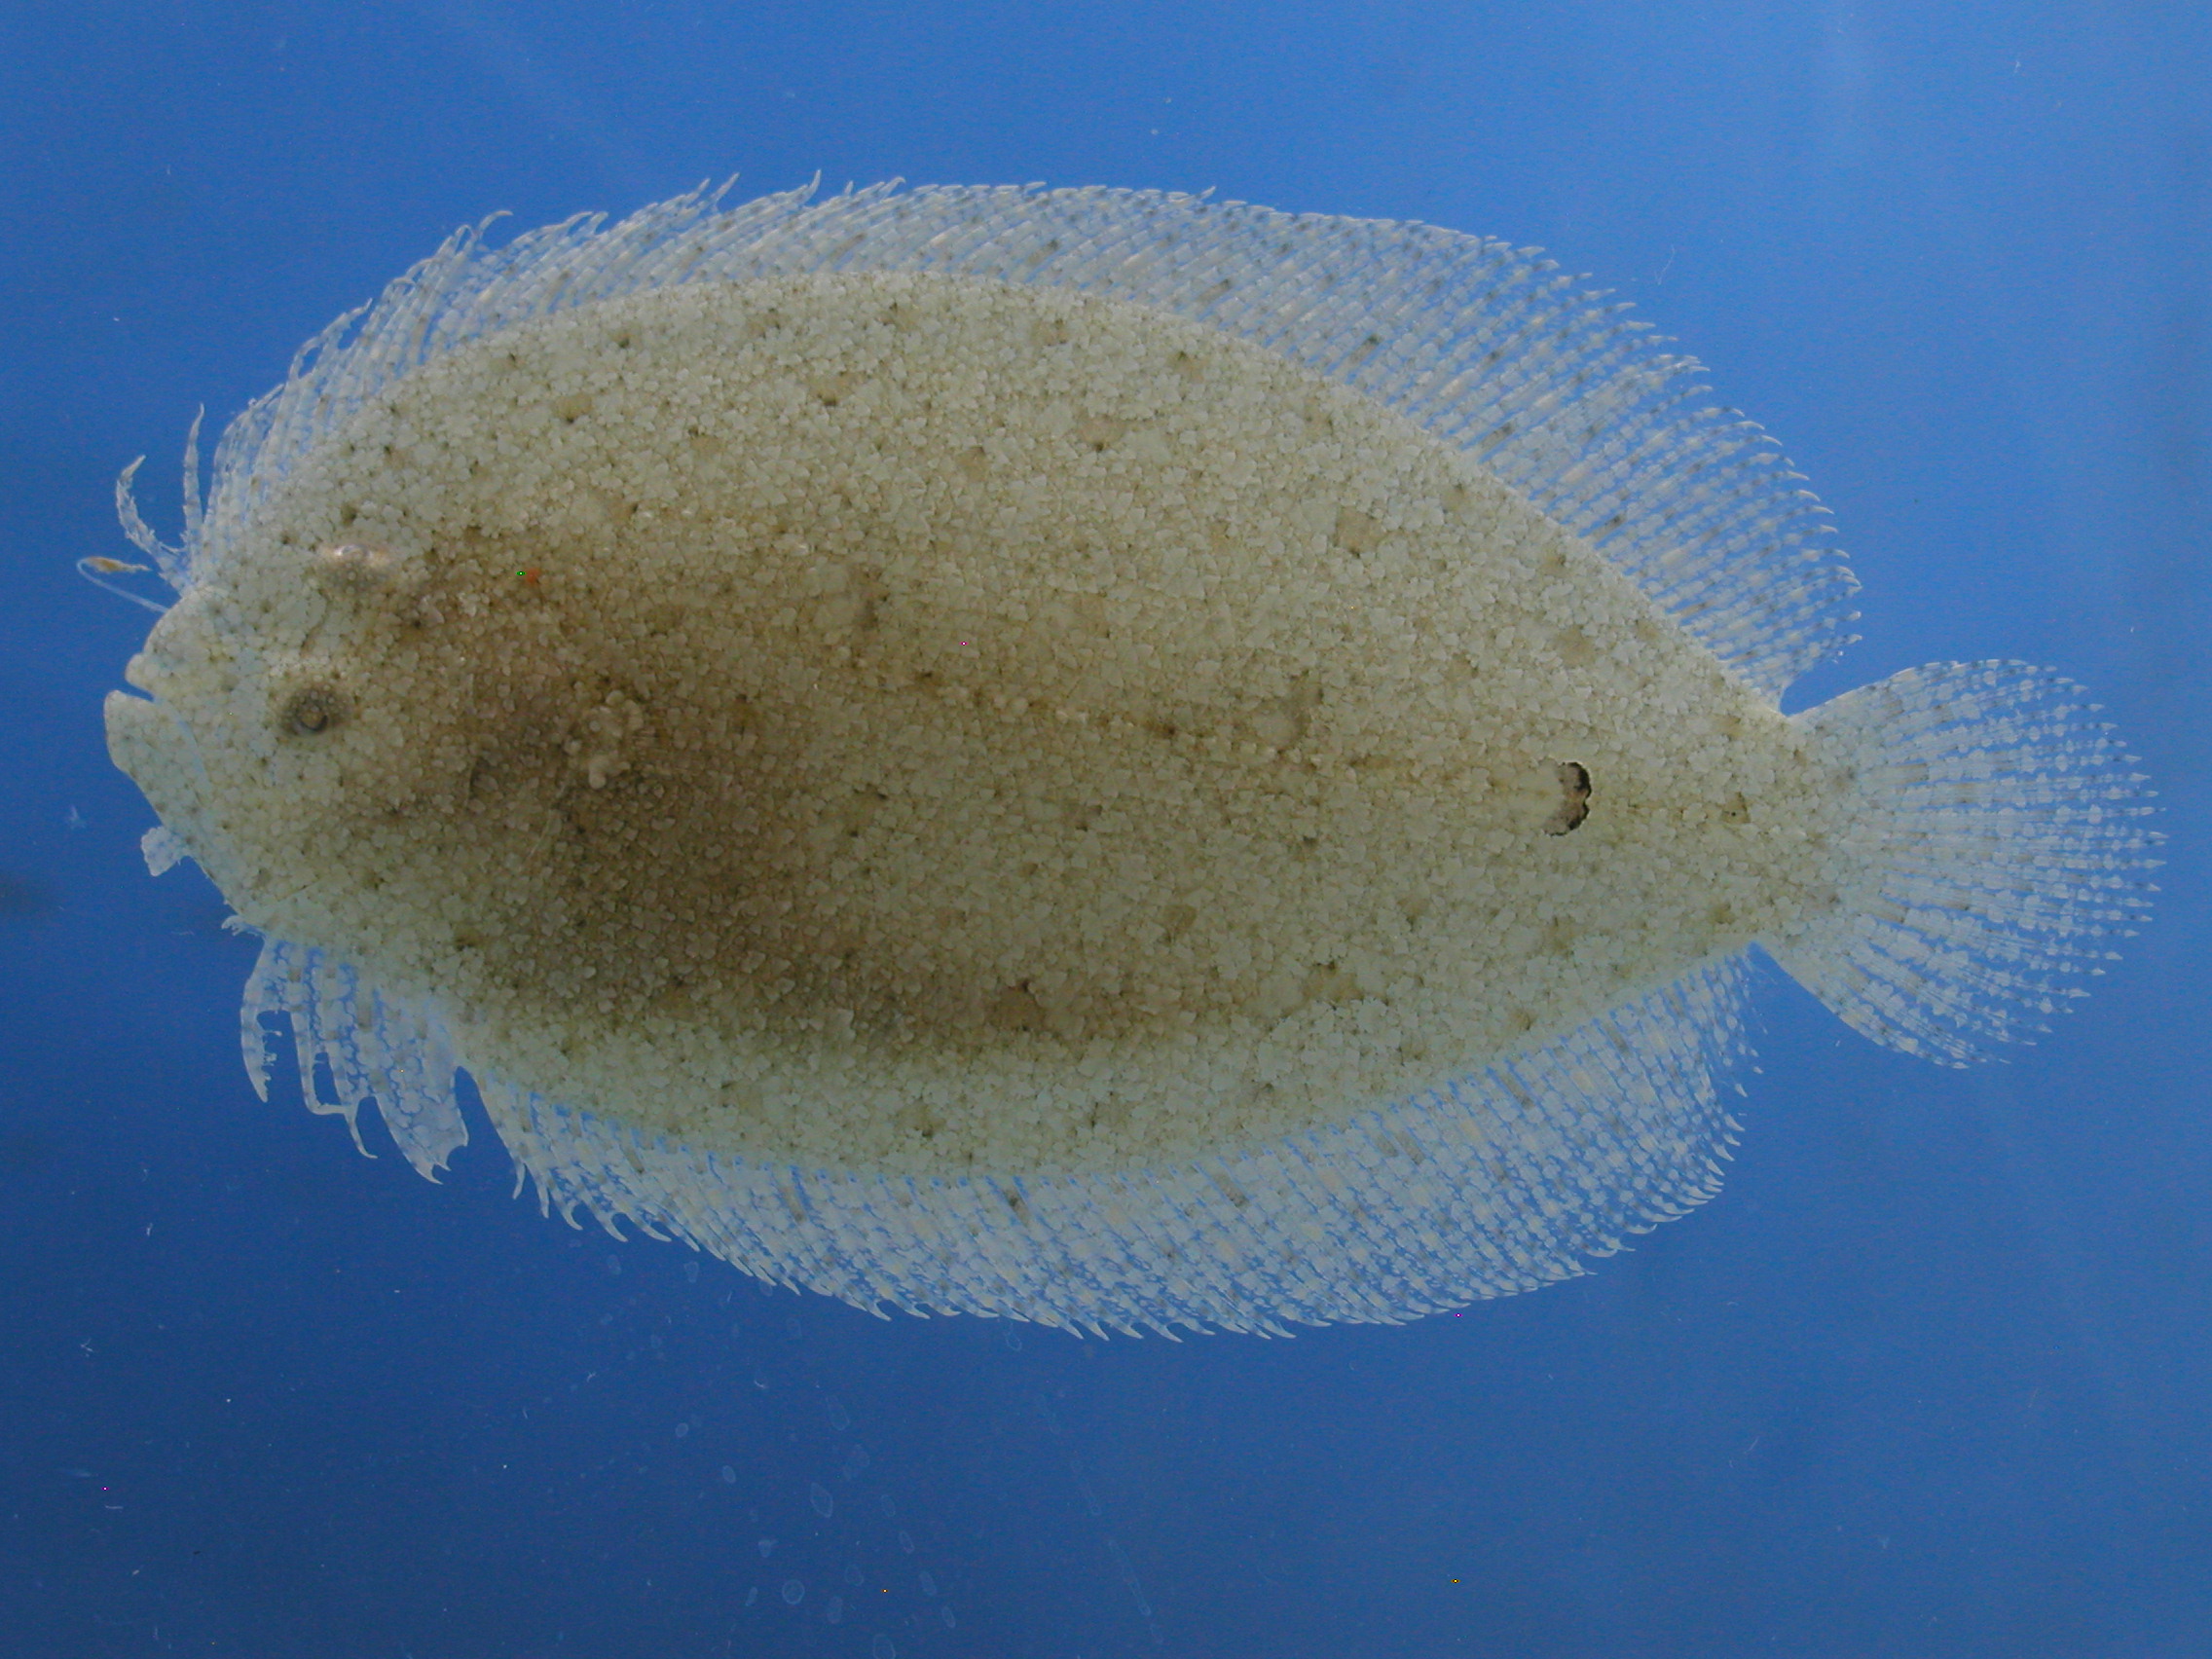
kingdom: Animalia
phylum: Chordata
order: Pleuronectiformes
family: Bothidae
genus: Asterorhombus
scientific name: Asterorhombus cocosensis
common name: Angler flatfish
